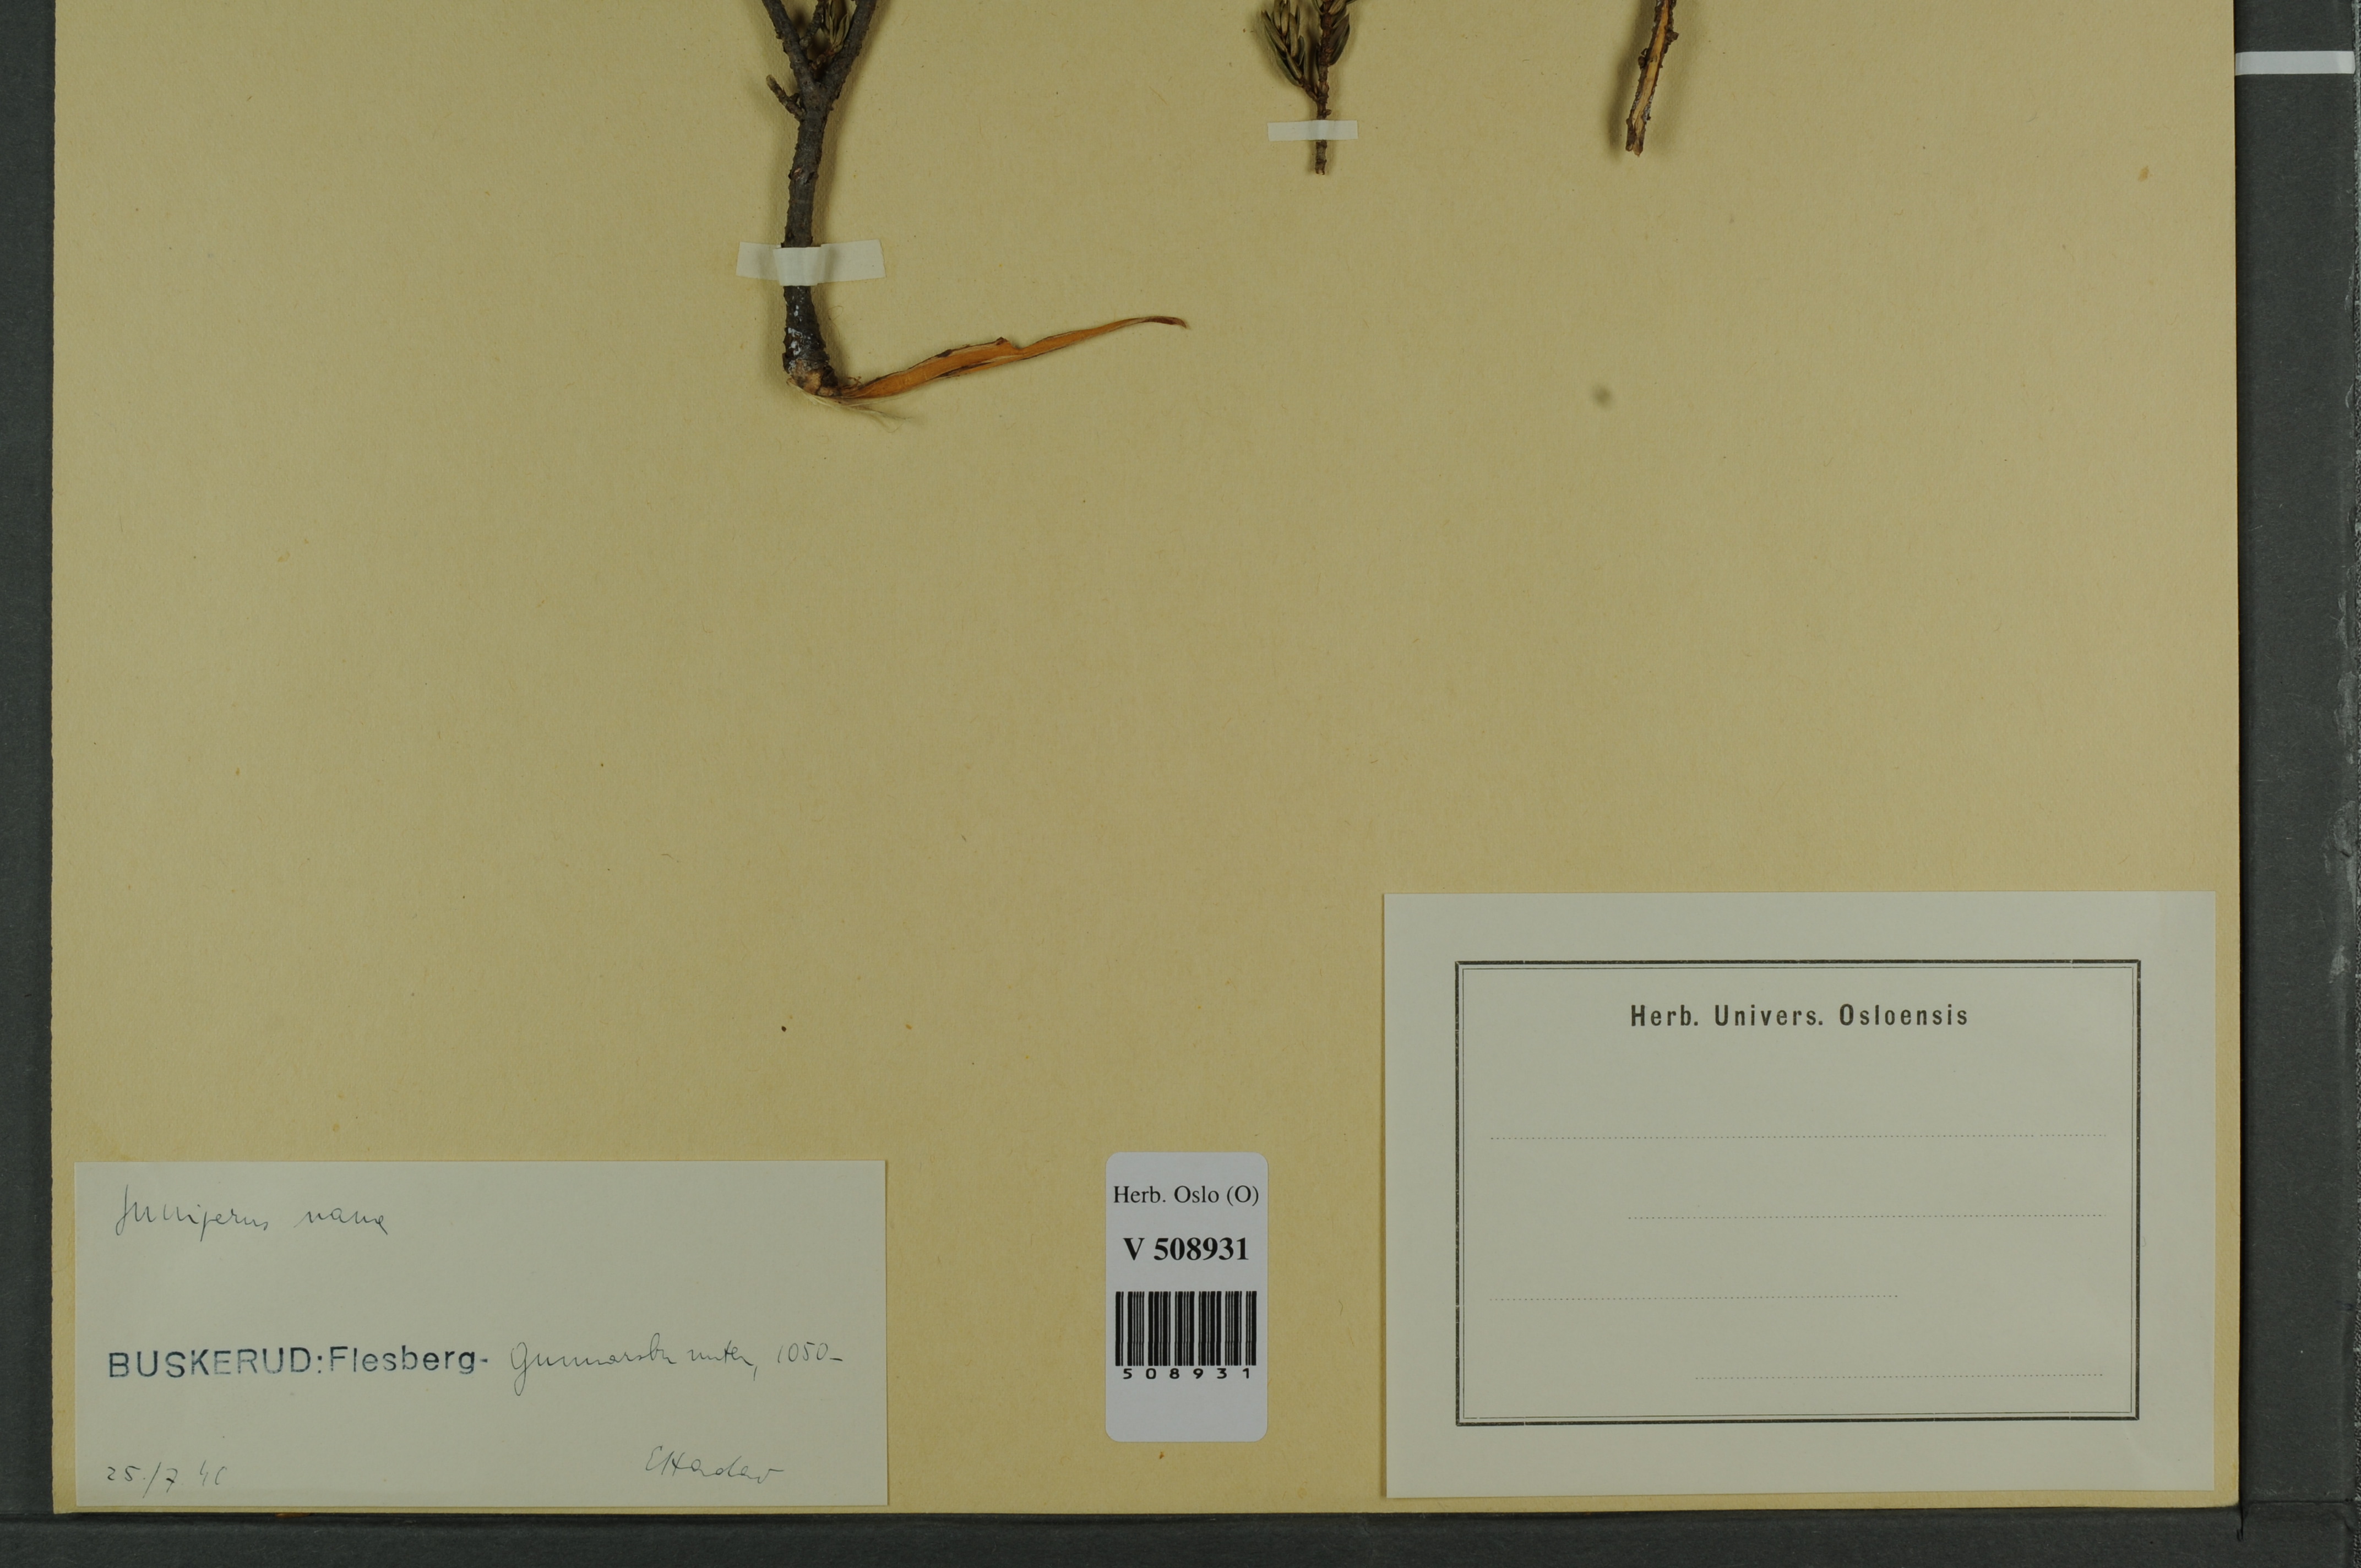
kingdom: Plantae
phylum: Tracheophyta
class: Pinopsida
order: Pinales
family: Cupressaceae
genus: Juniperus
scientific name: Juniperus communis
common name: Common juniper
